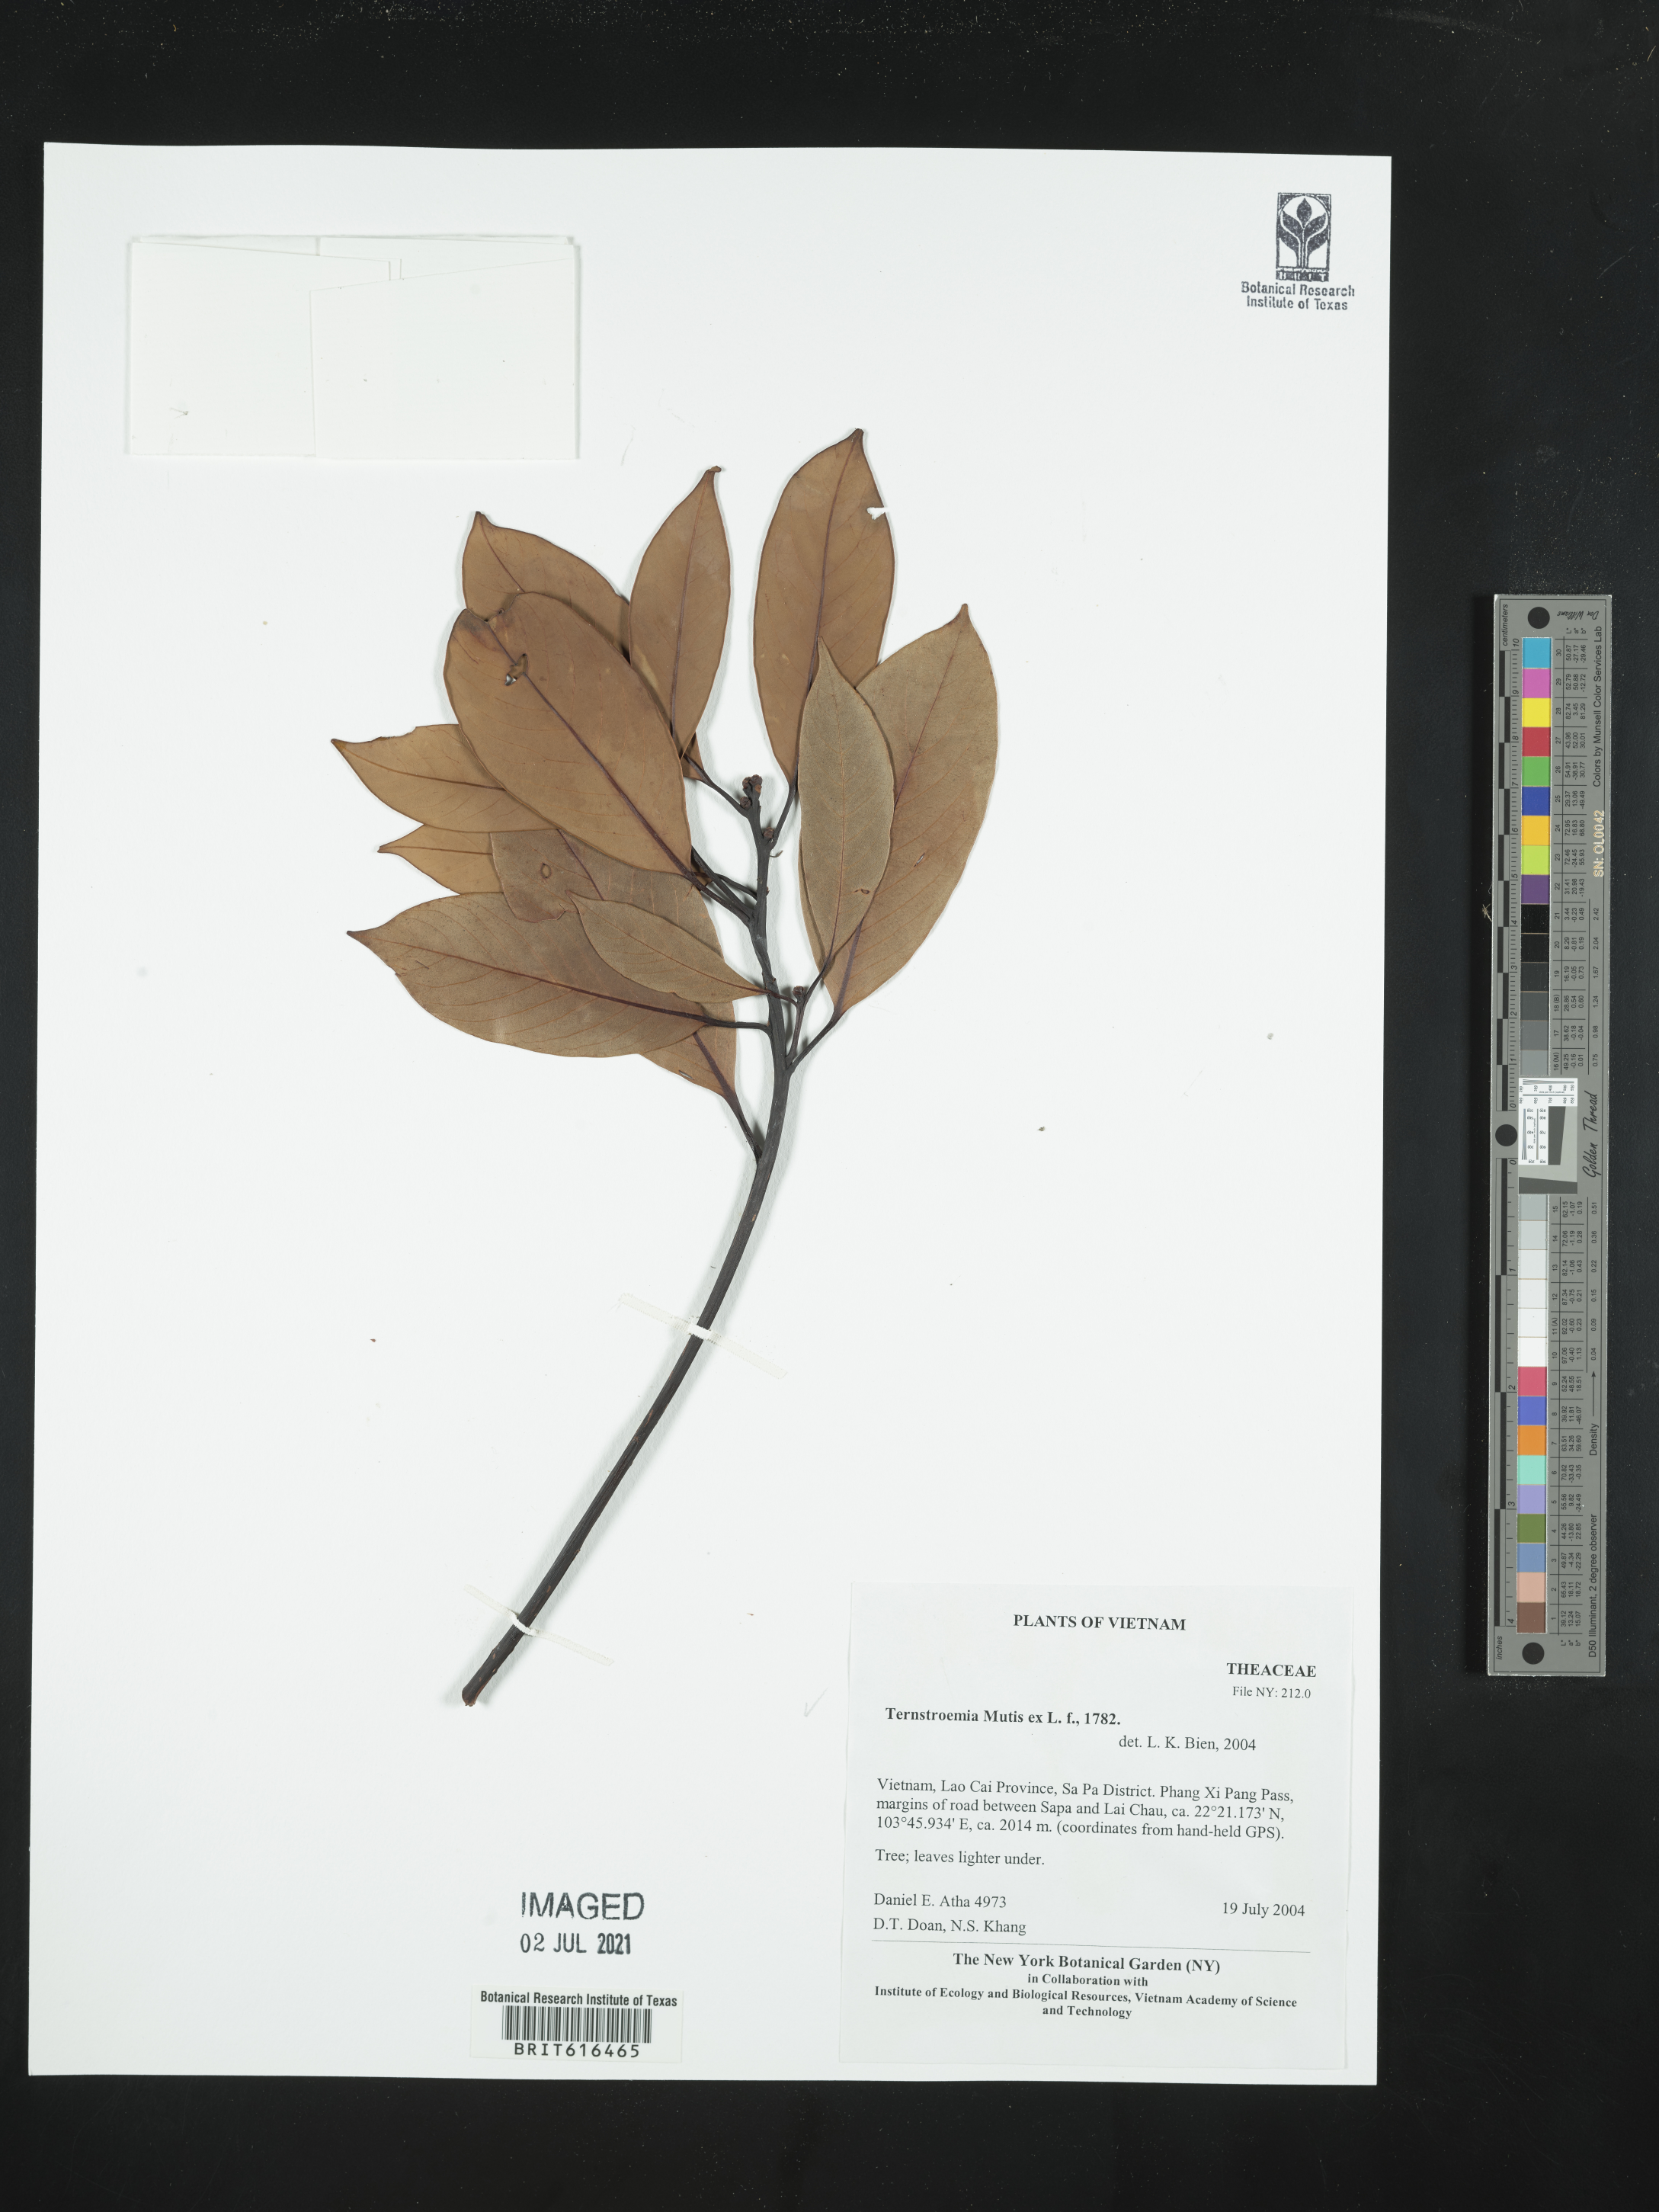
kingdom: Plantae
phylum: Tracheophyta
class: Magnoliopsida
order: Ericales
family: Pentaphylacaceae
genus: Ternstroemia
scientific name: Ternstroemia
